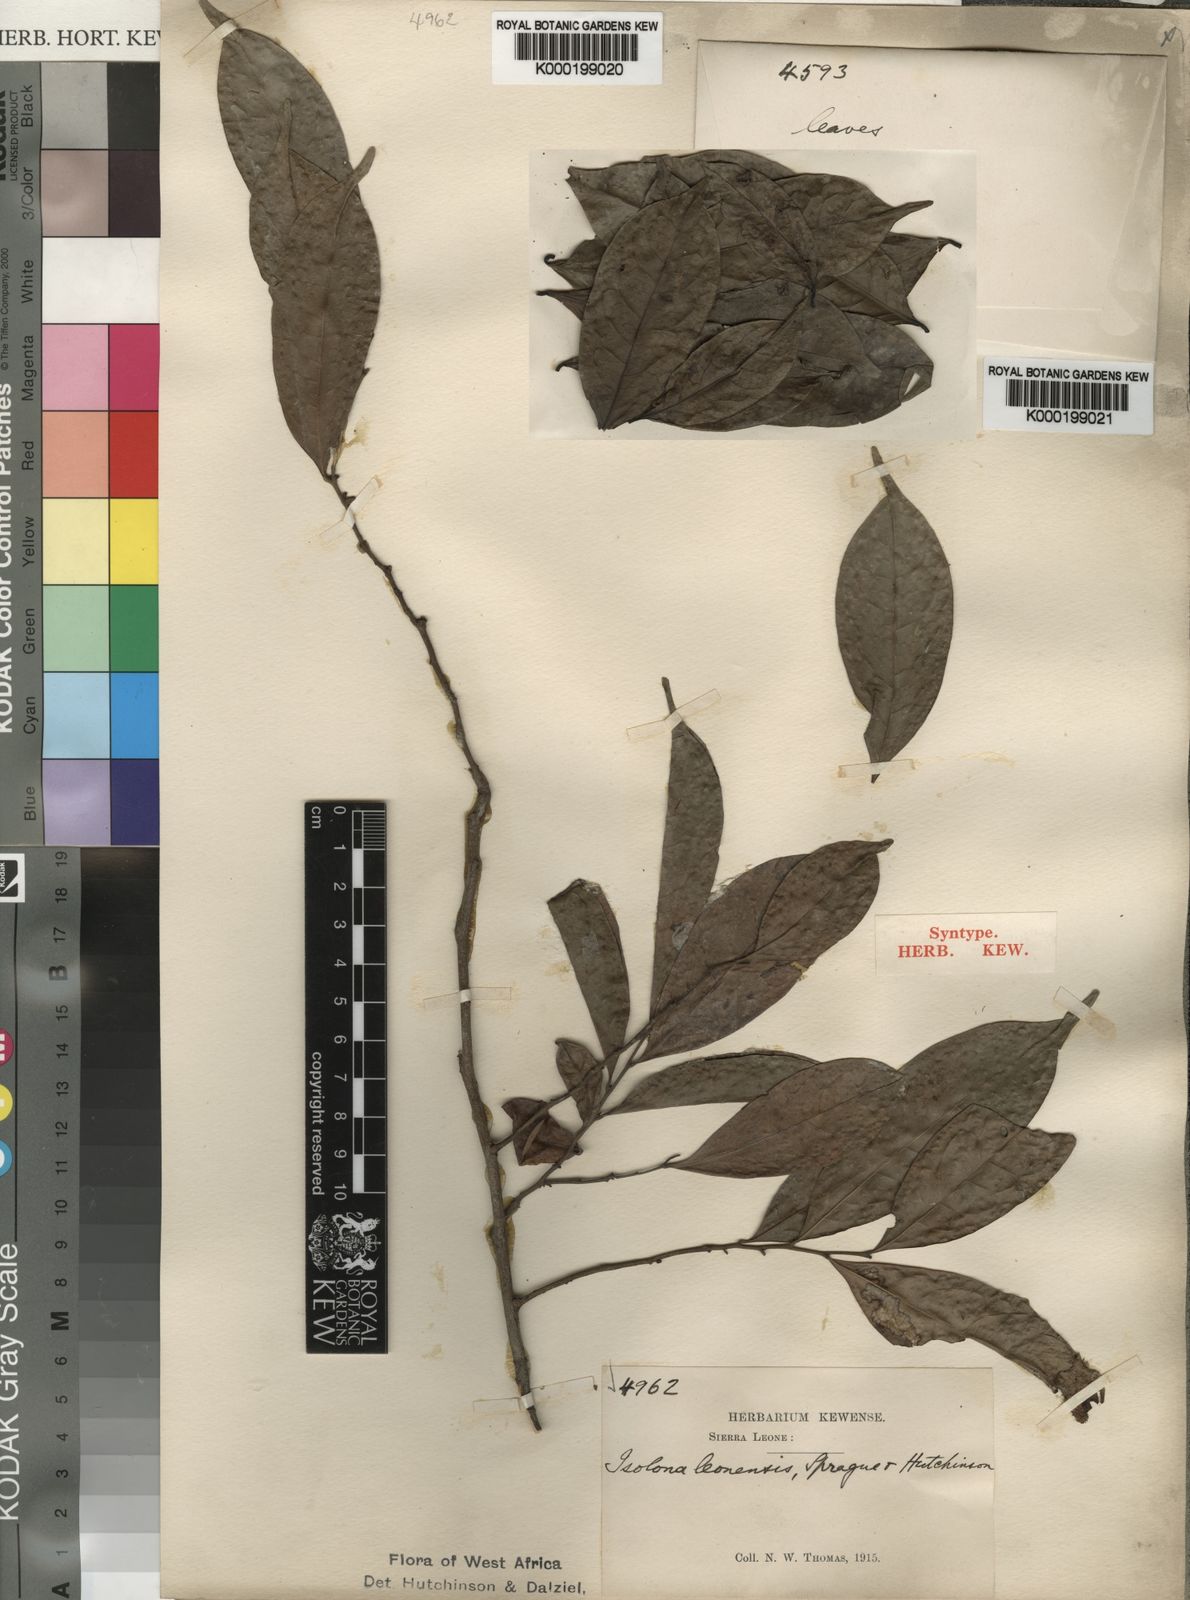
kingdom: Plantae
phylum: Tracheophyta
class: Magnoliopsida
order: Magnoliales
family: Annonaceae
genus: Isolona
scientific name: Isolona campanulata
